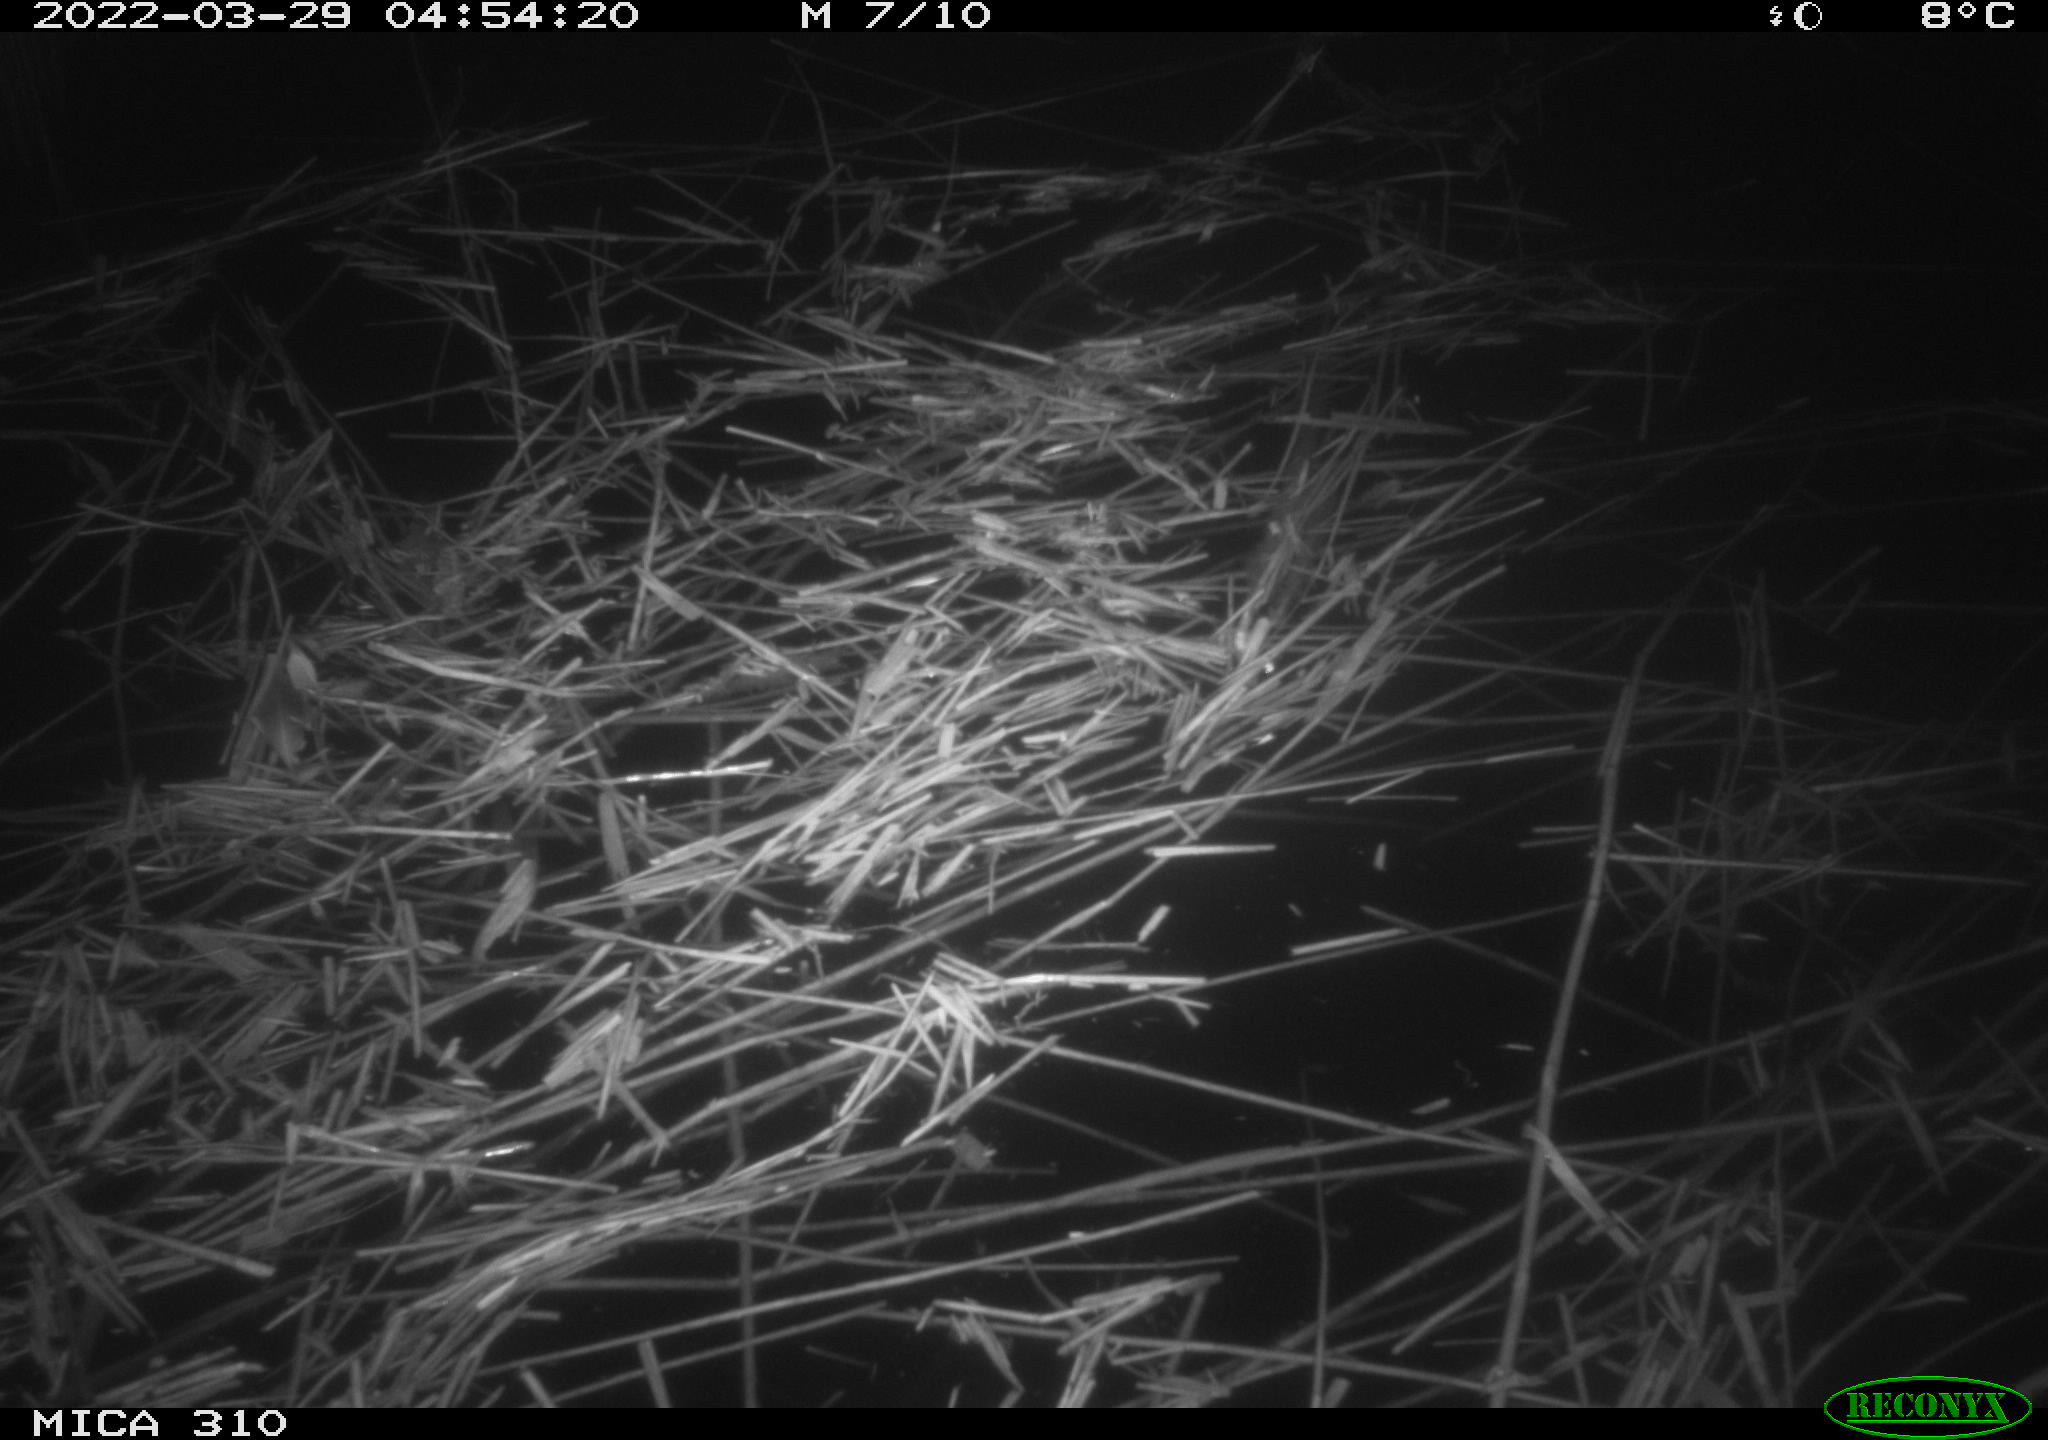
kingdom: Animalia
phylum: Chordata
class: Aves
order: Anseriformes
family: Anatidae
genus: Anas
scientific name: Anas platyrhynchos
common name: Mallard
